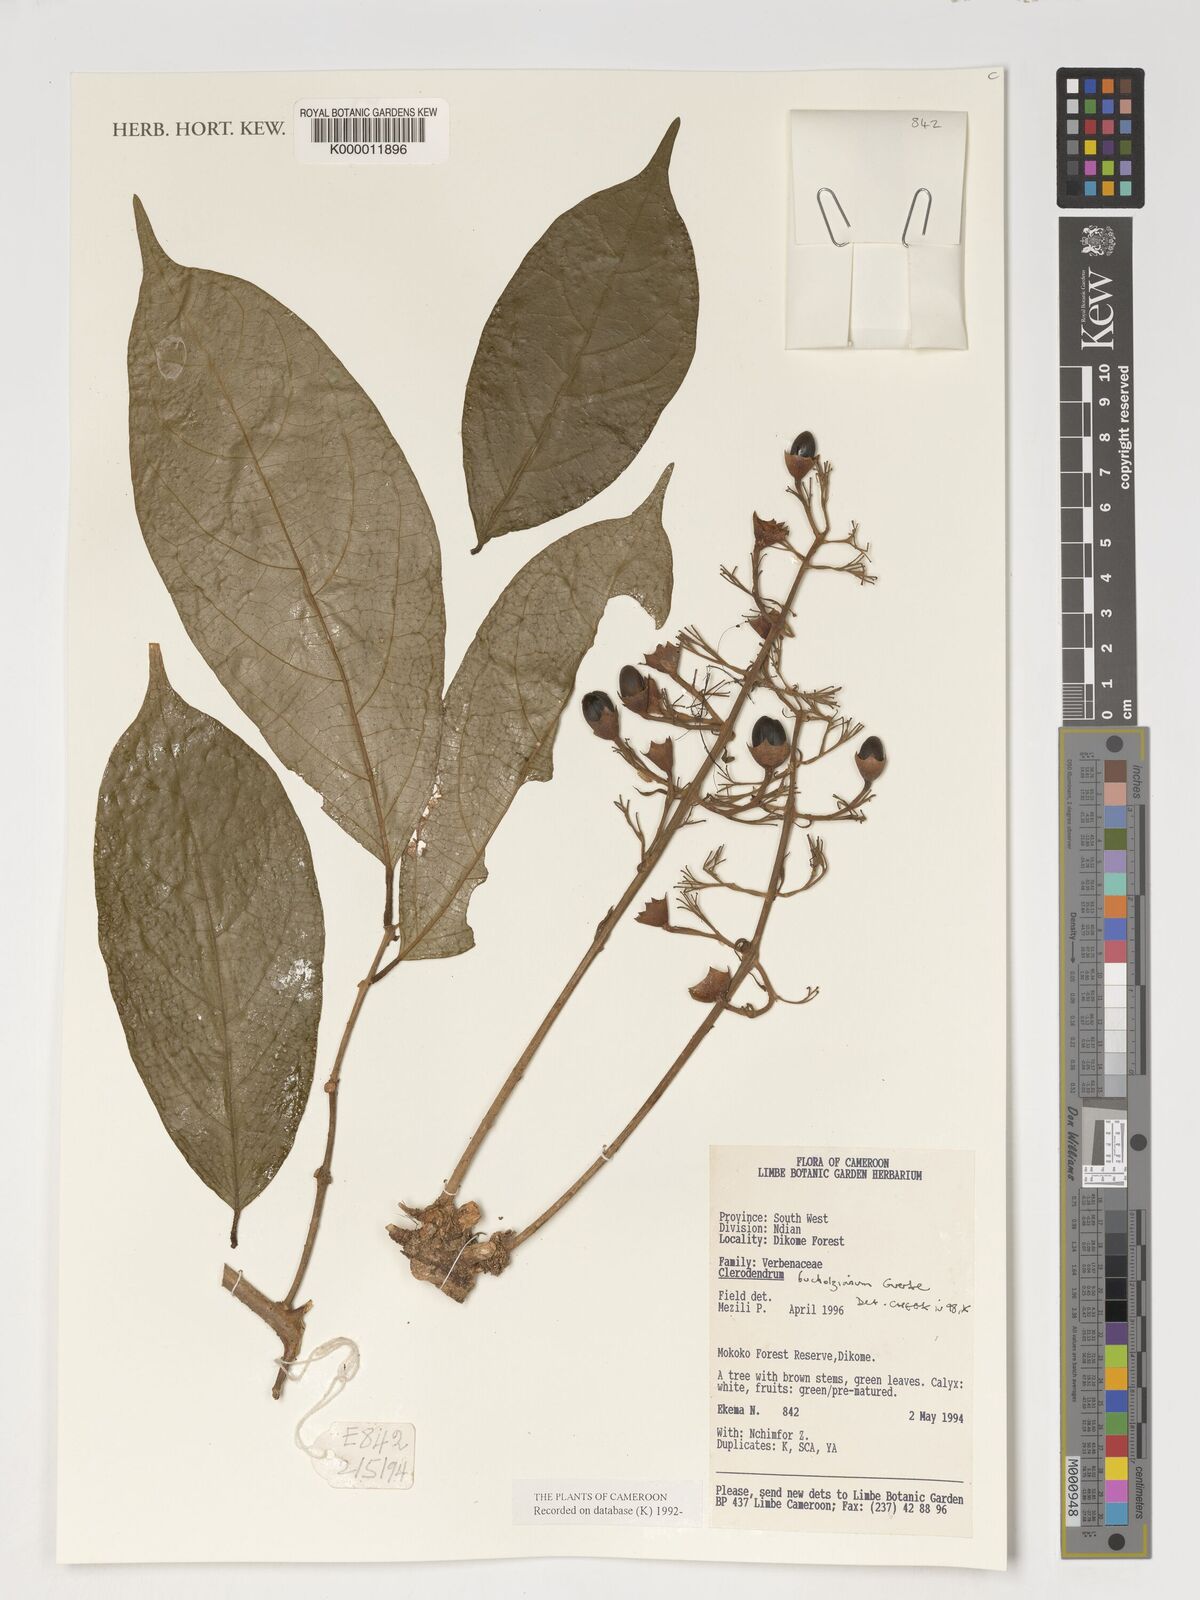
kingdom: Plantae
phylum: Tracheophyta
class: Magnoliopsida
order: Lamiales
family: Lamiaceae
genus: Clerodendrum
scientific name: Clerodendrum silvanum
